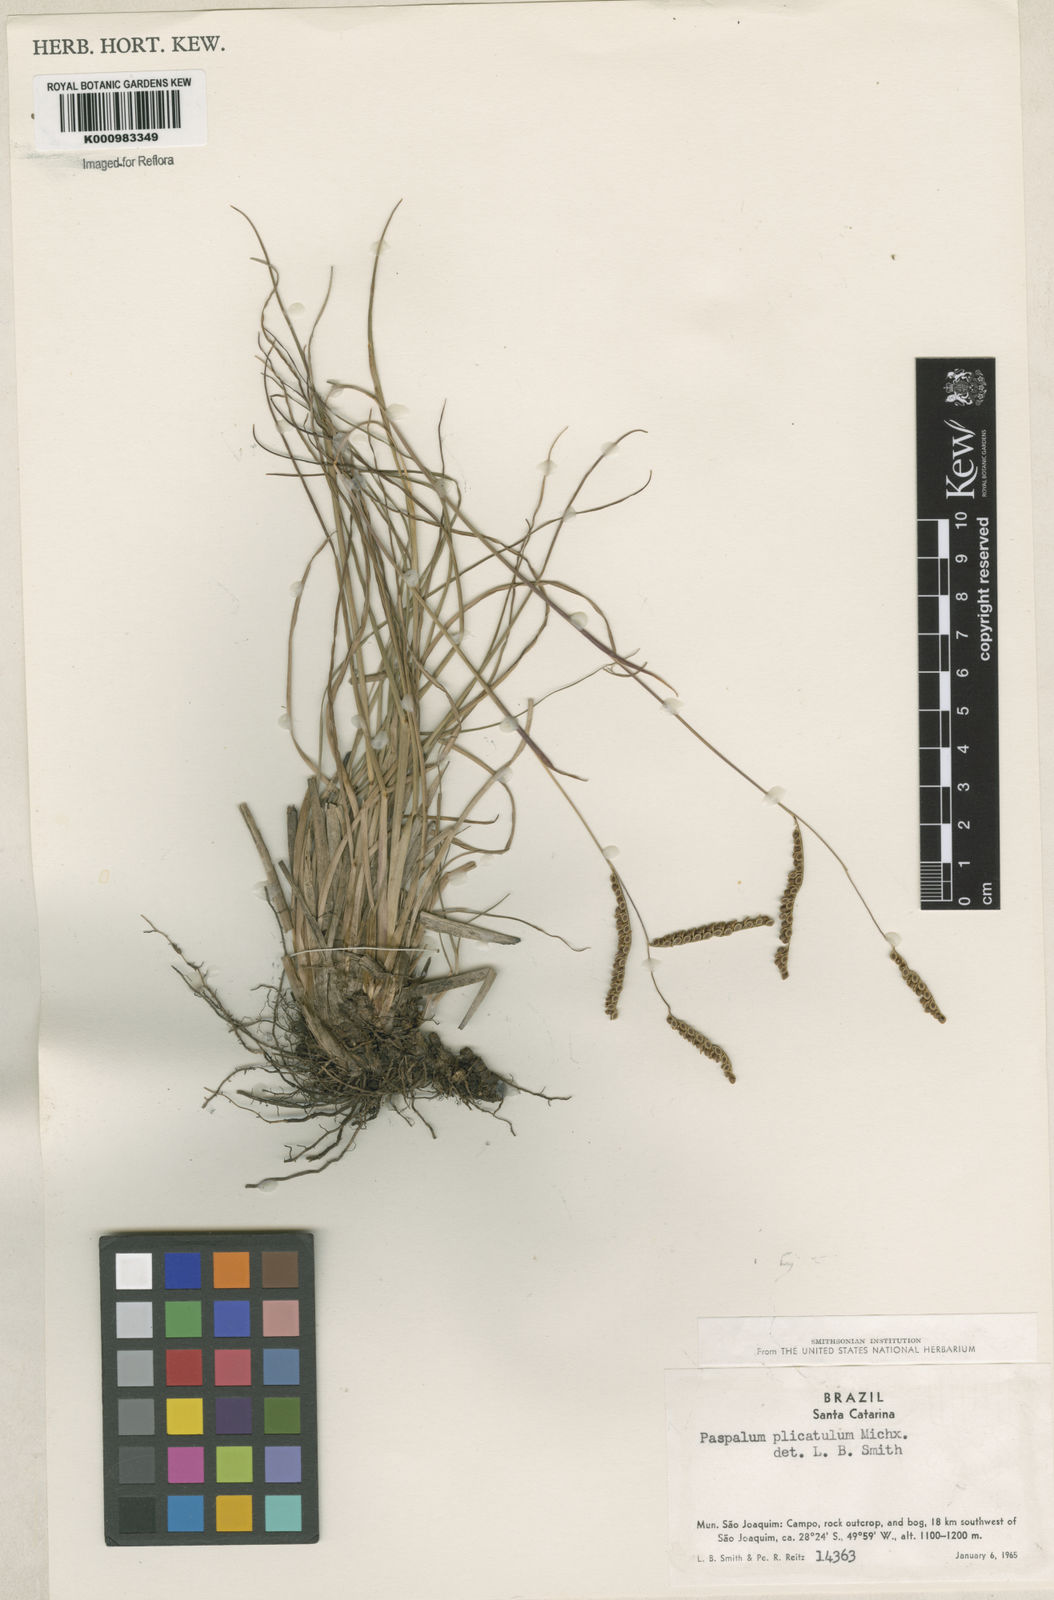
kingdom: Plantae
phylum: Tracheophyta
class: Liliopsida
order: Poales
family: Poaceae
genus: Paspalum
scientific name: Paspalum plicatulum
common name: Top paspalum
